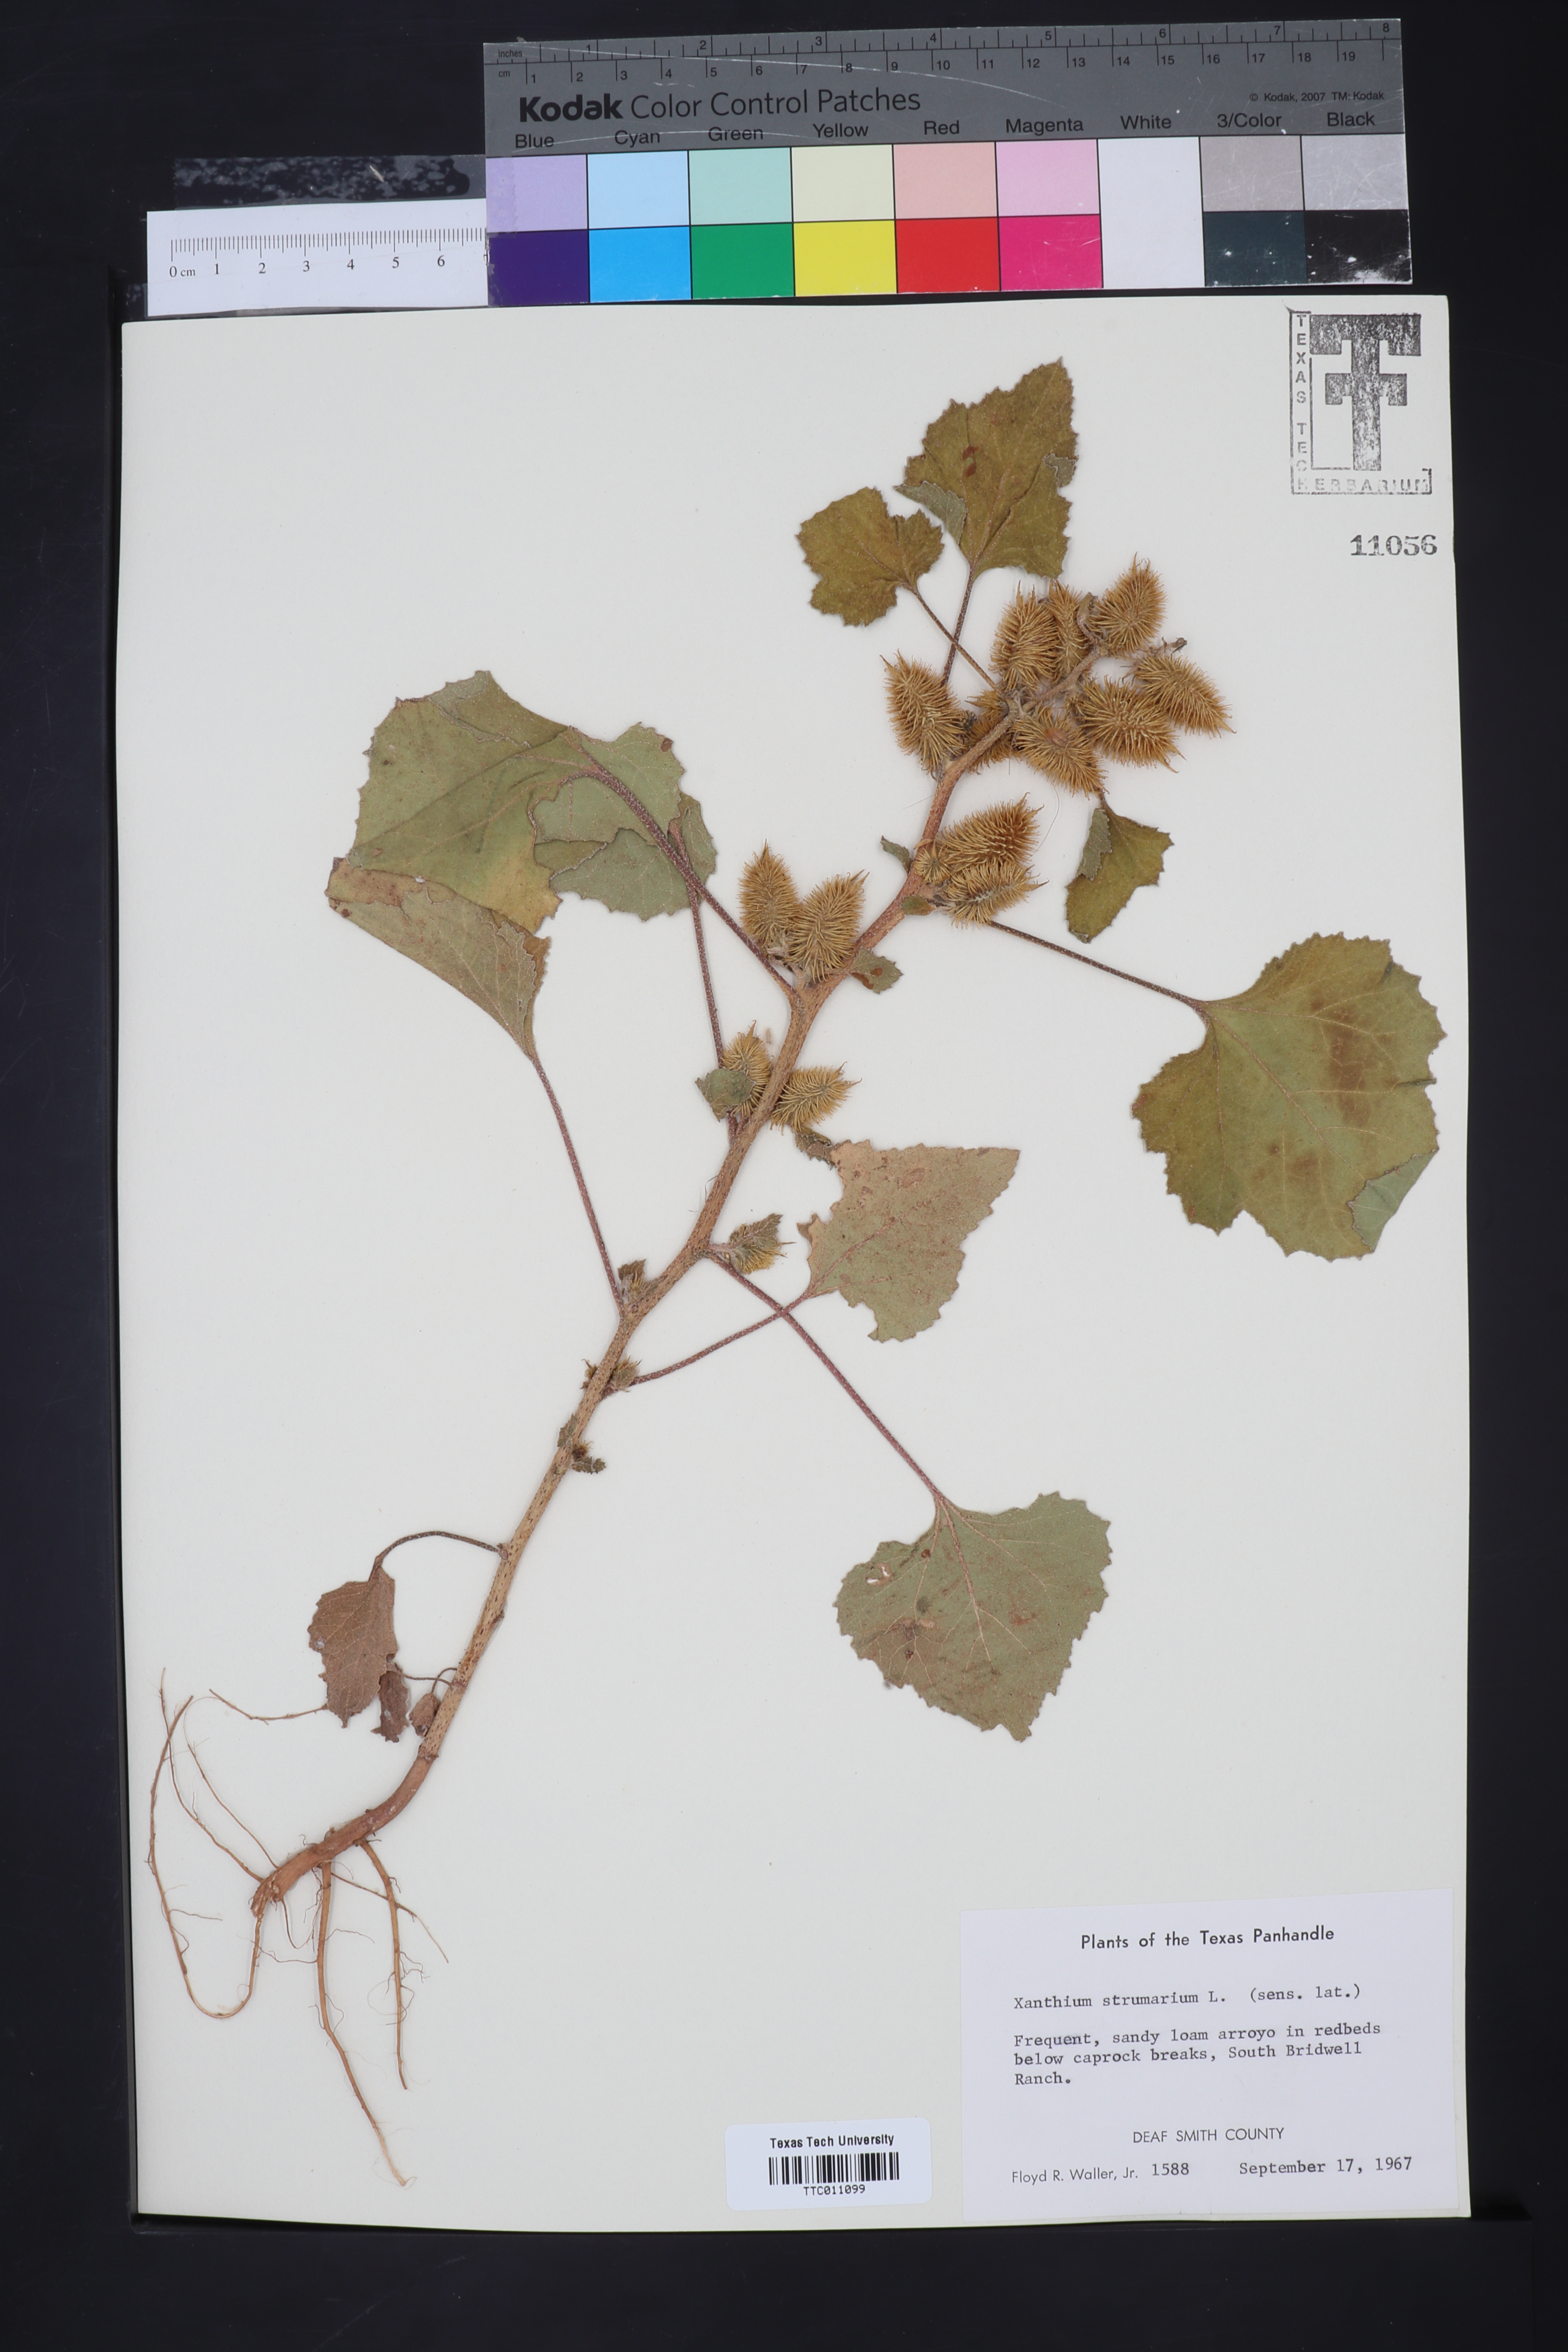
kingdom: Plantae
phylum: Tracheophyta
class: Magnoliopsida
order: Asterales
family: Asteraceae
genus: Xanthium
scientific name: Xanthium strumarium
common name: Rough cocklebur
